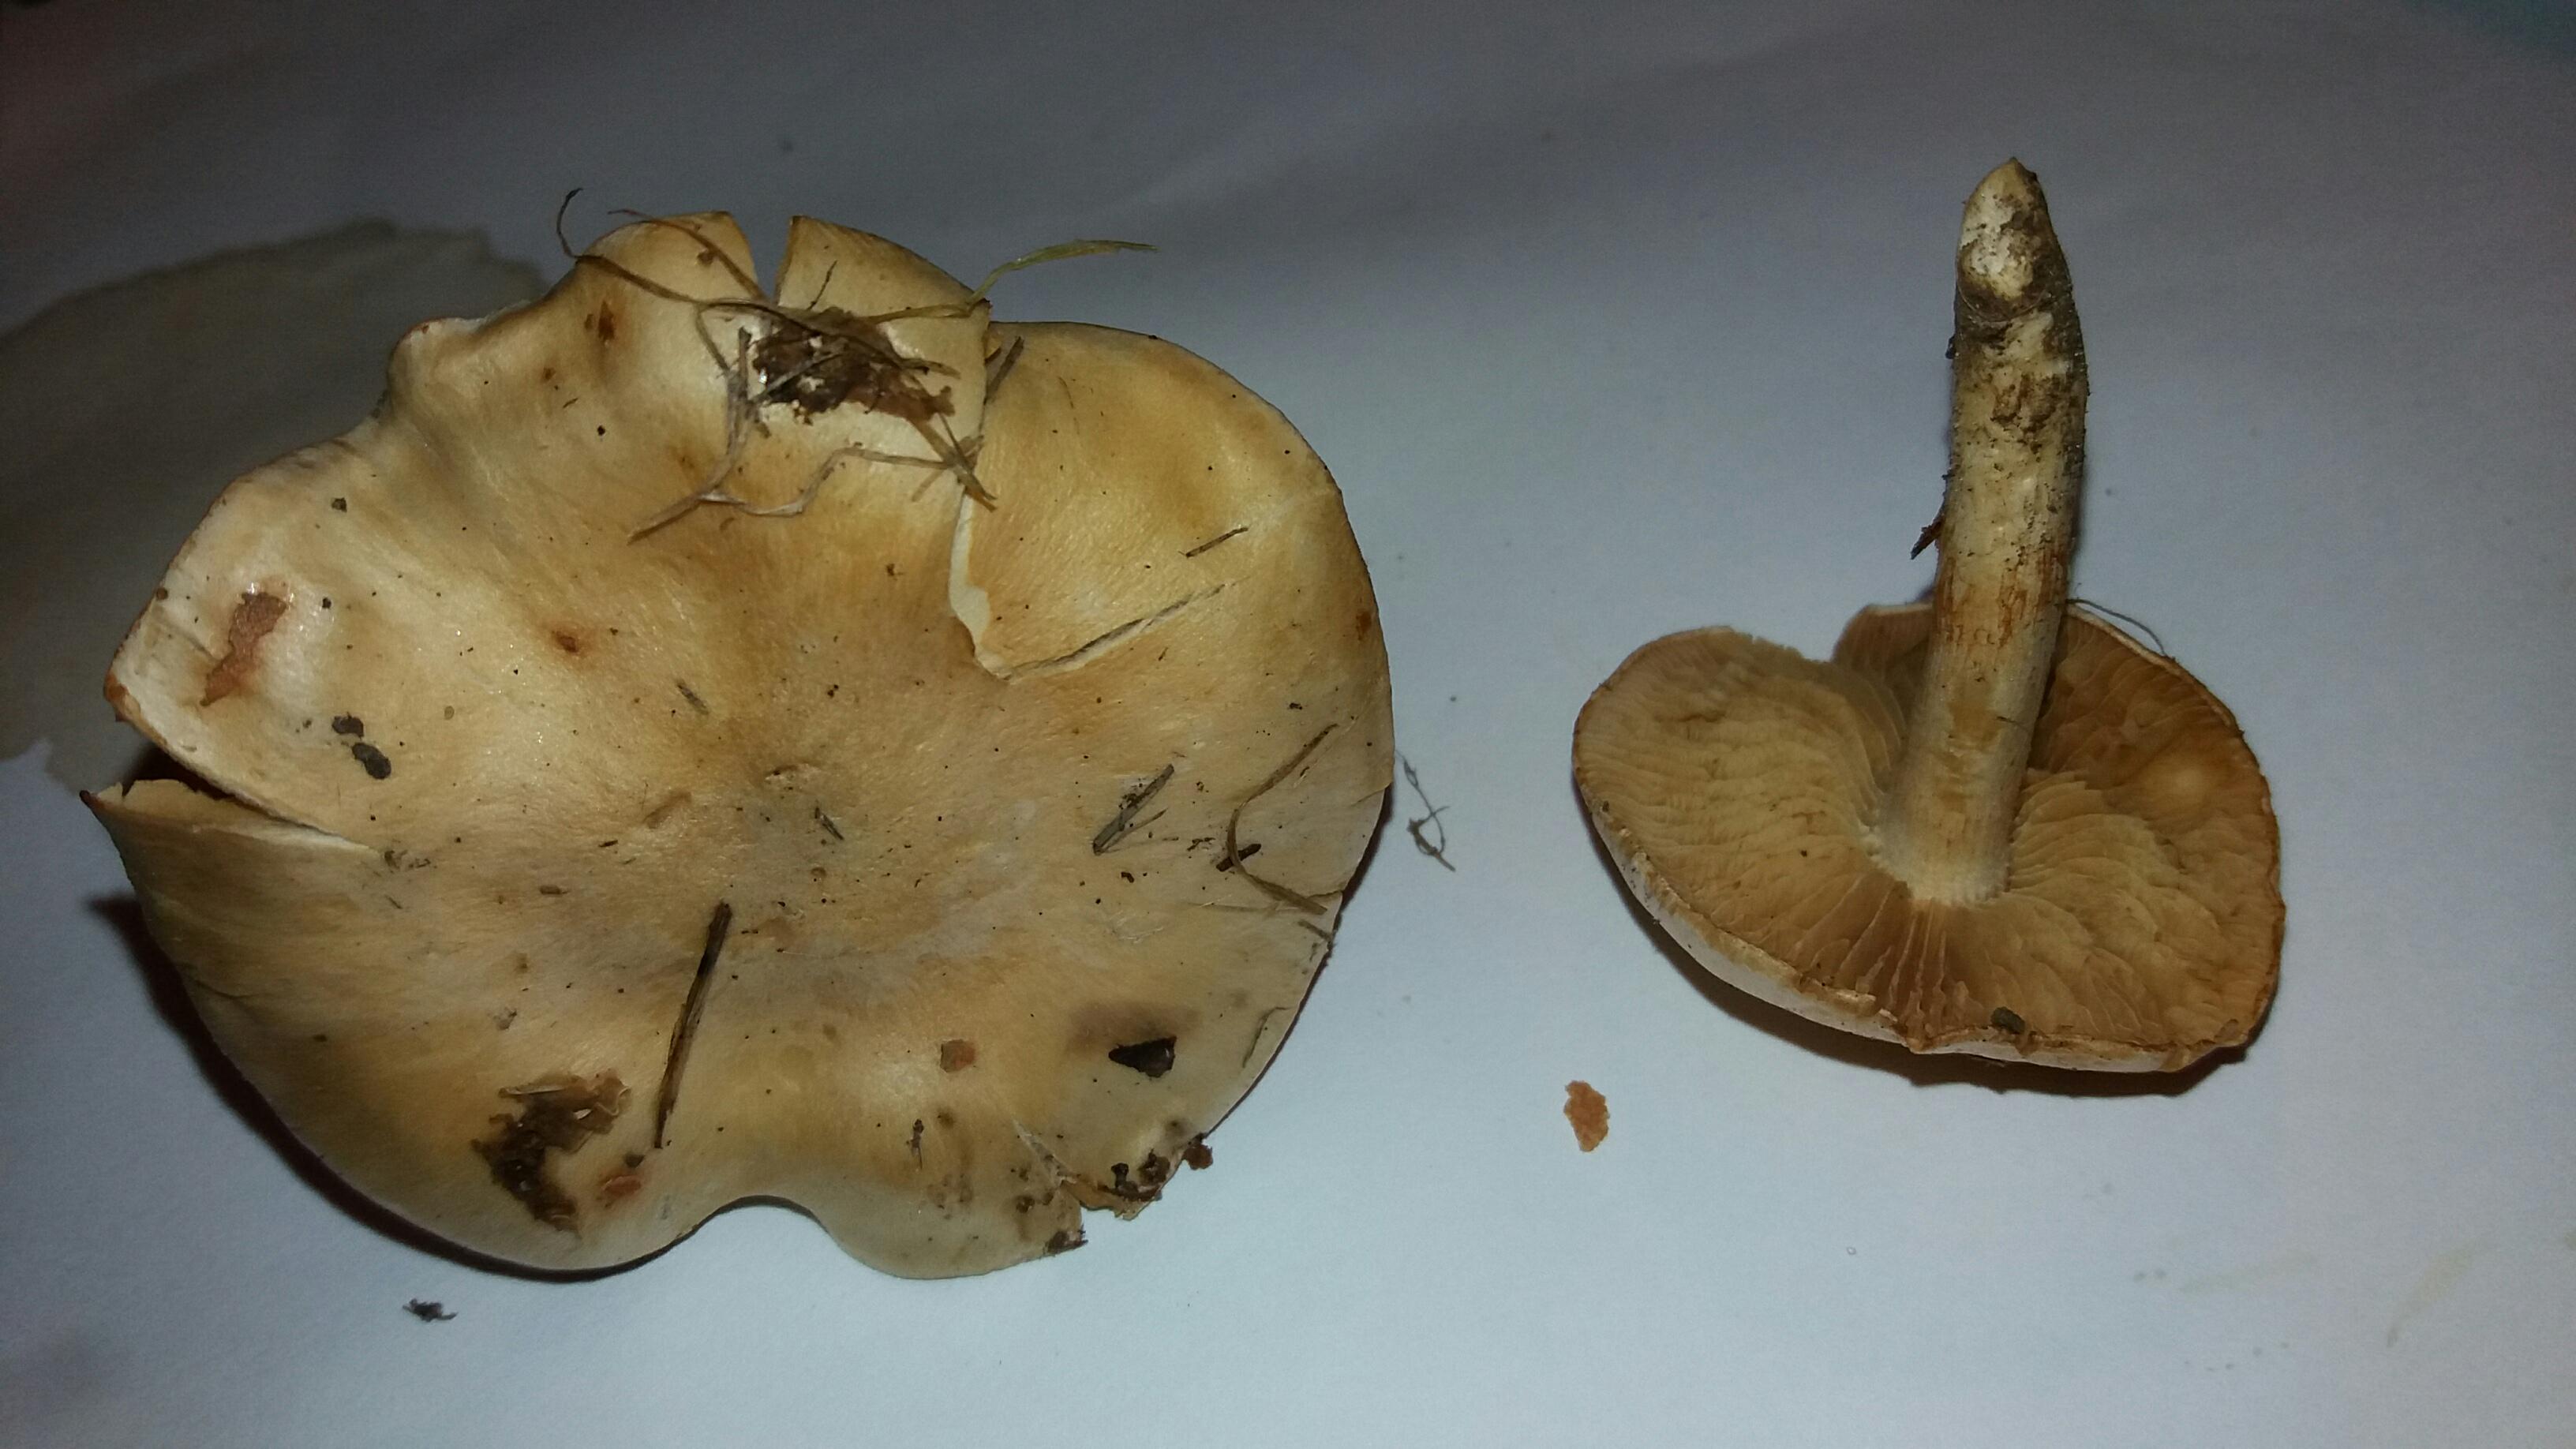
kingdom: Fungi
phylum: Basidiomycota
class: Agaricomycetes
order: Agaricales
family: Cortinariaceae
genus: Cortinarius
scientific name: Cortinarius
